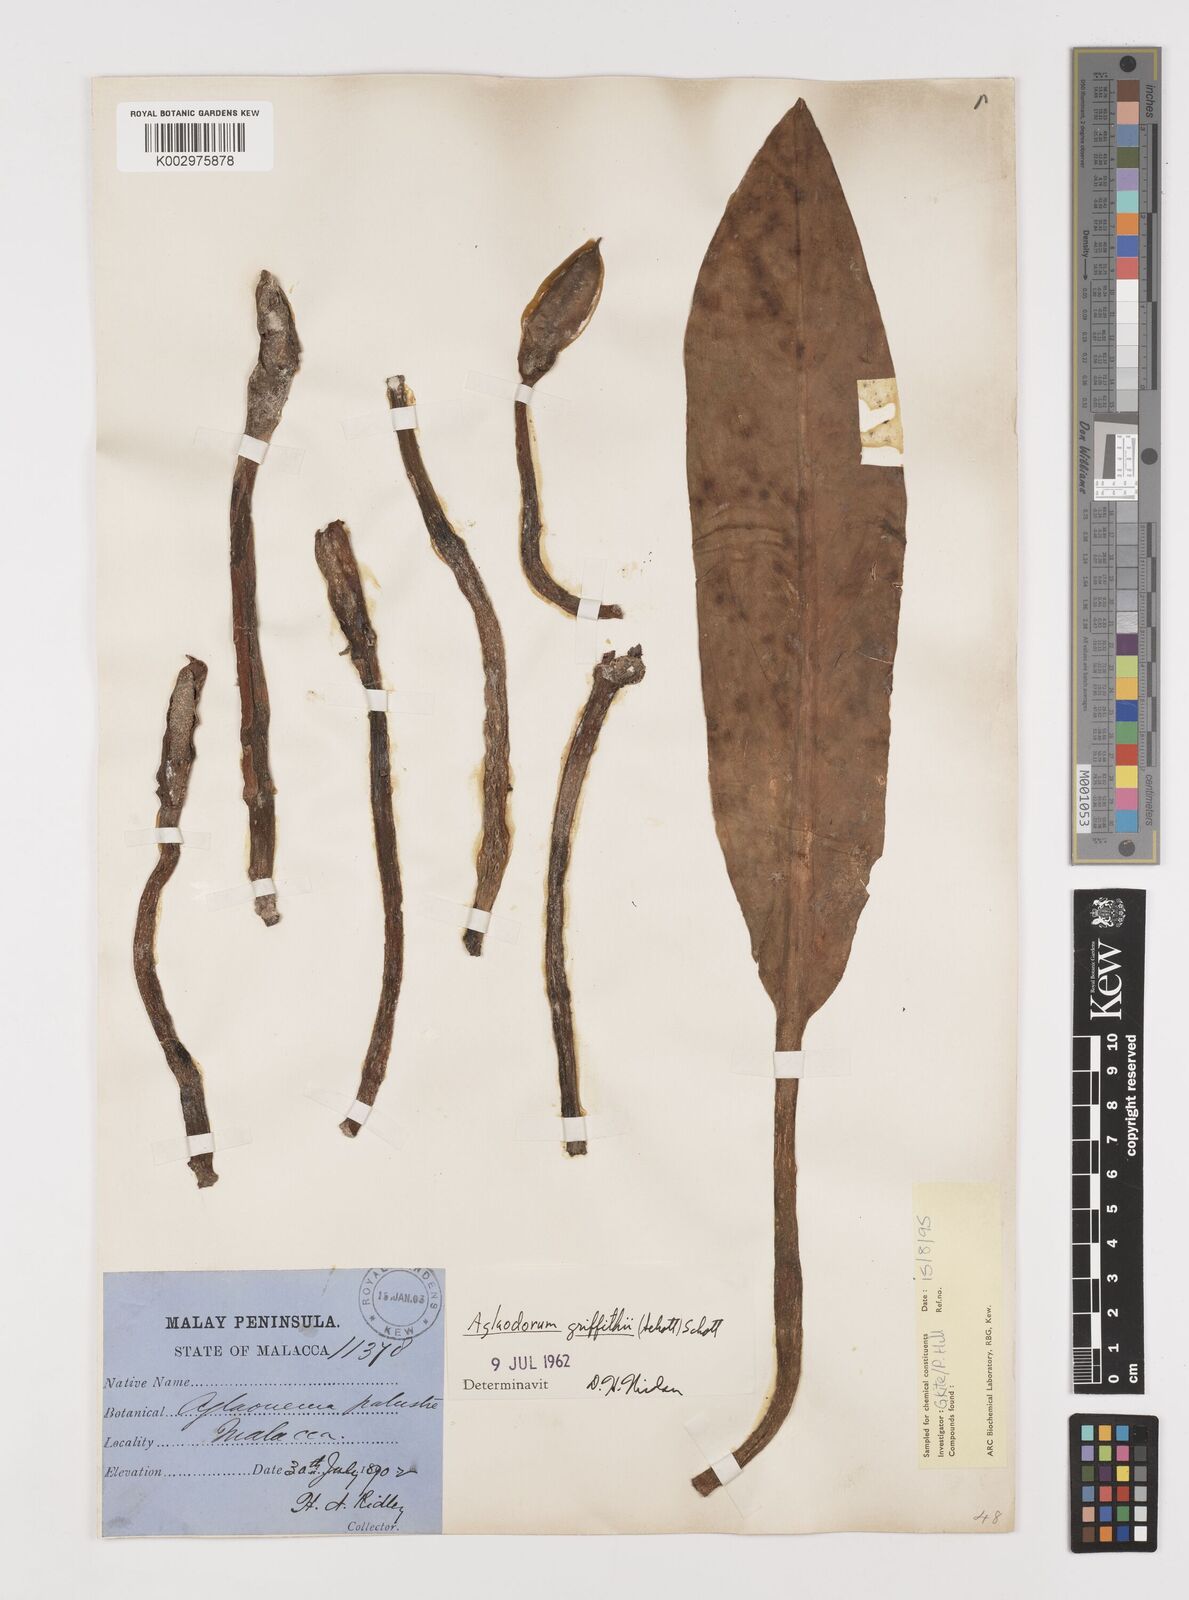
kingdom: Plantae
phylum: Tracheophyta
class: Liliopsida
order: Alismatales
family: Araceae
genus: Aglaodorum
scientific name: Aglaodorum griffithii
